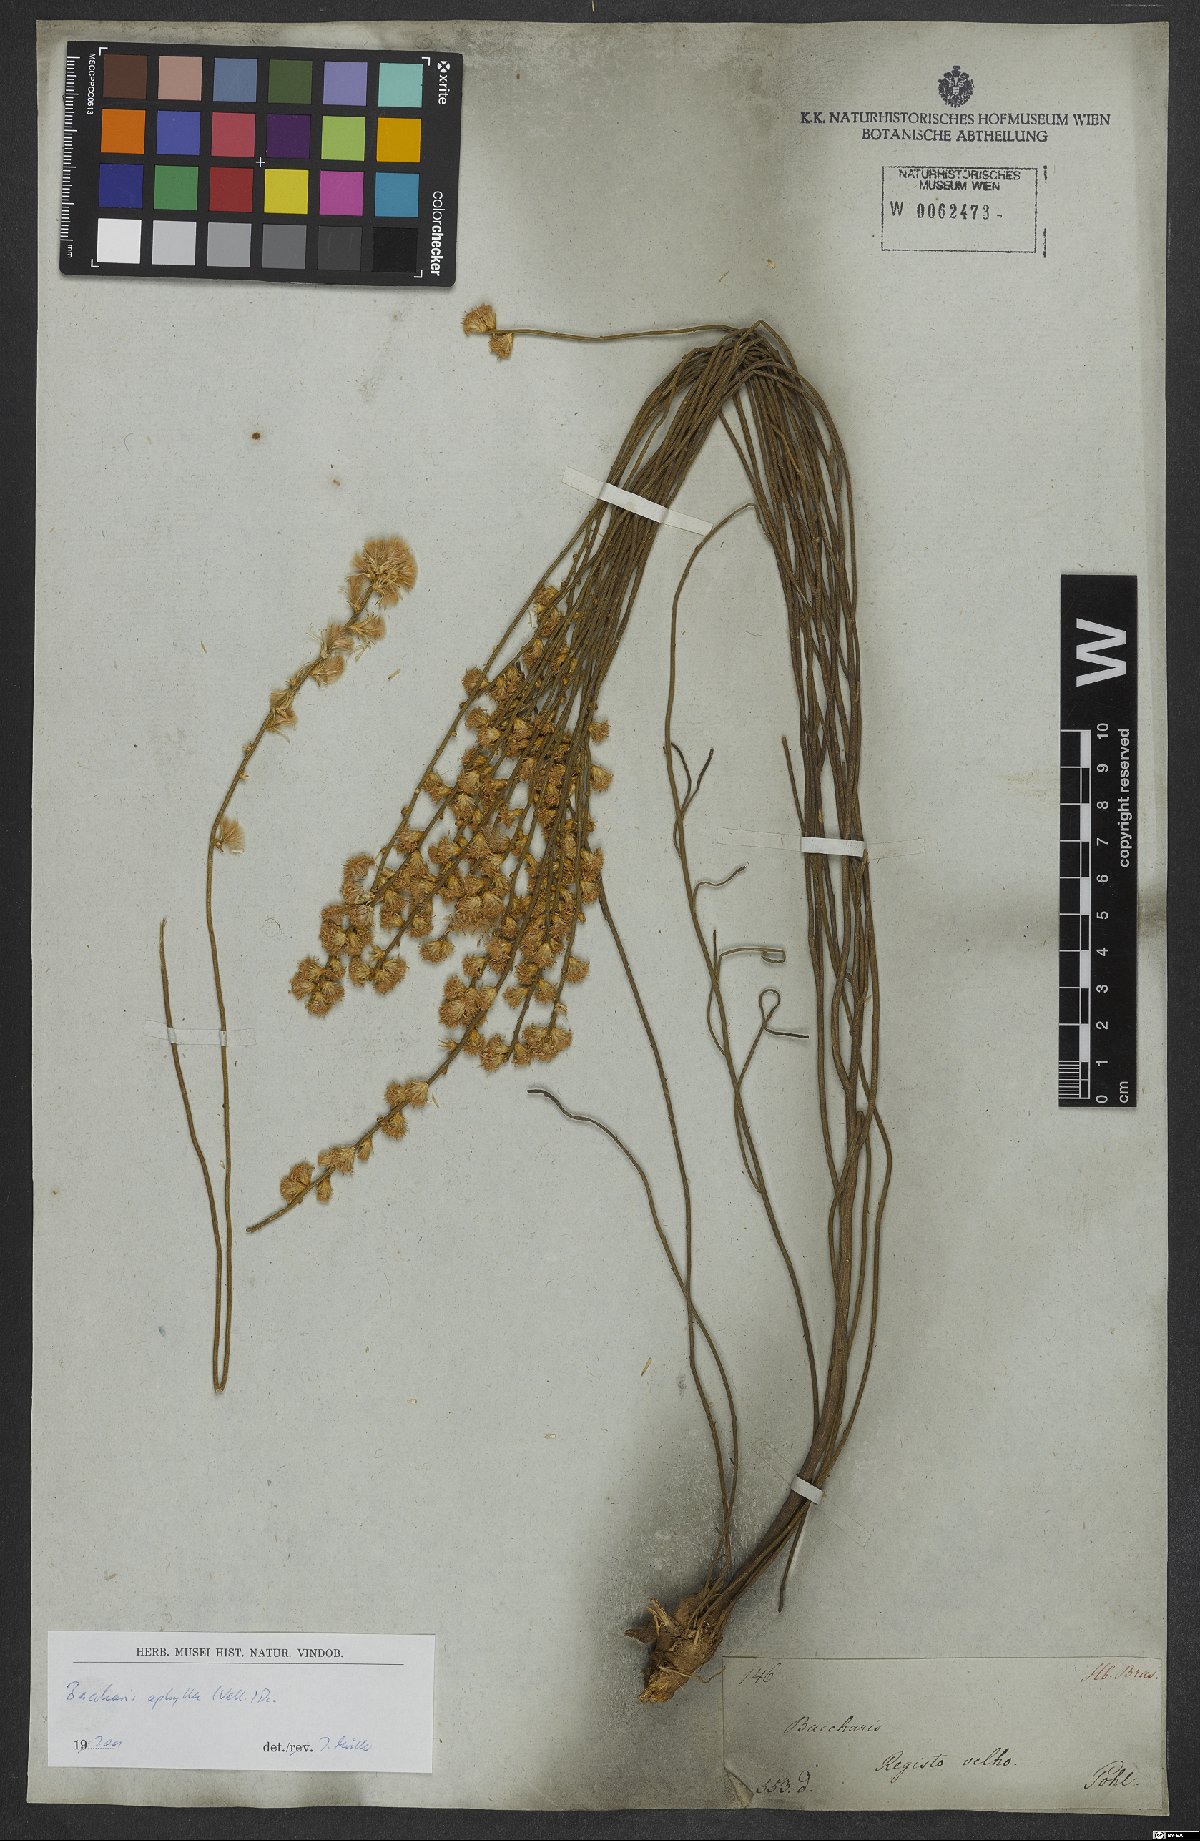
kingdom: Plantae
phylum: Tracheophyta
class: Magnoliopsida
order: Asterales
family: Asteraceae
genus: Baccharis
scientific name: Baccharis aphylla
